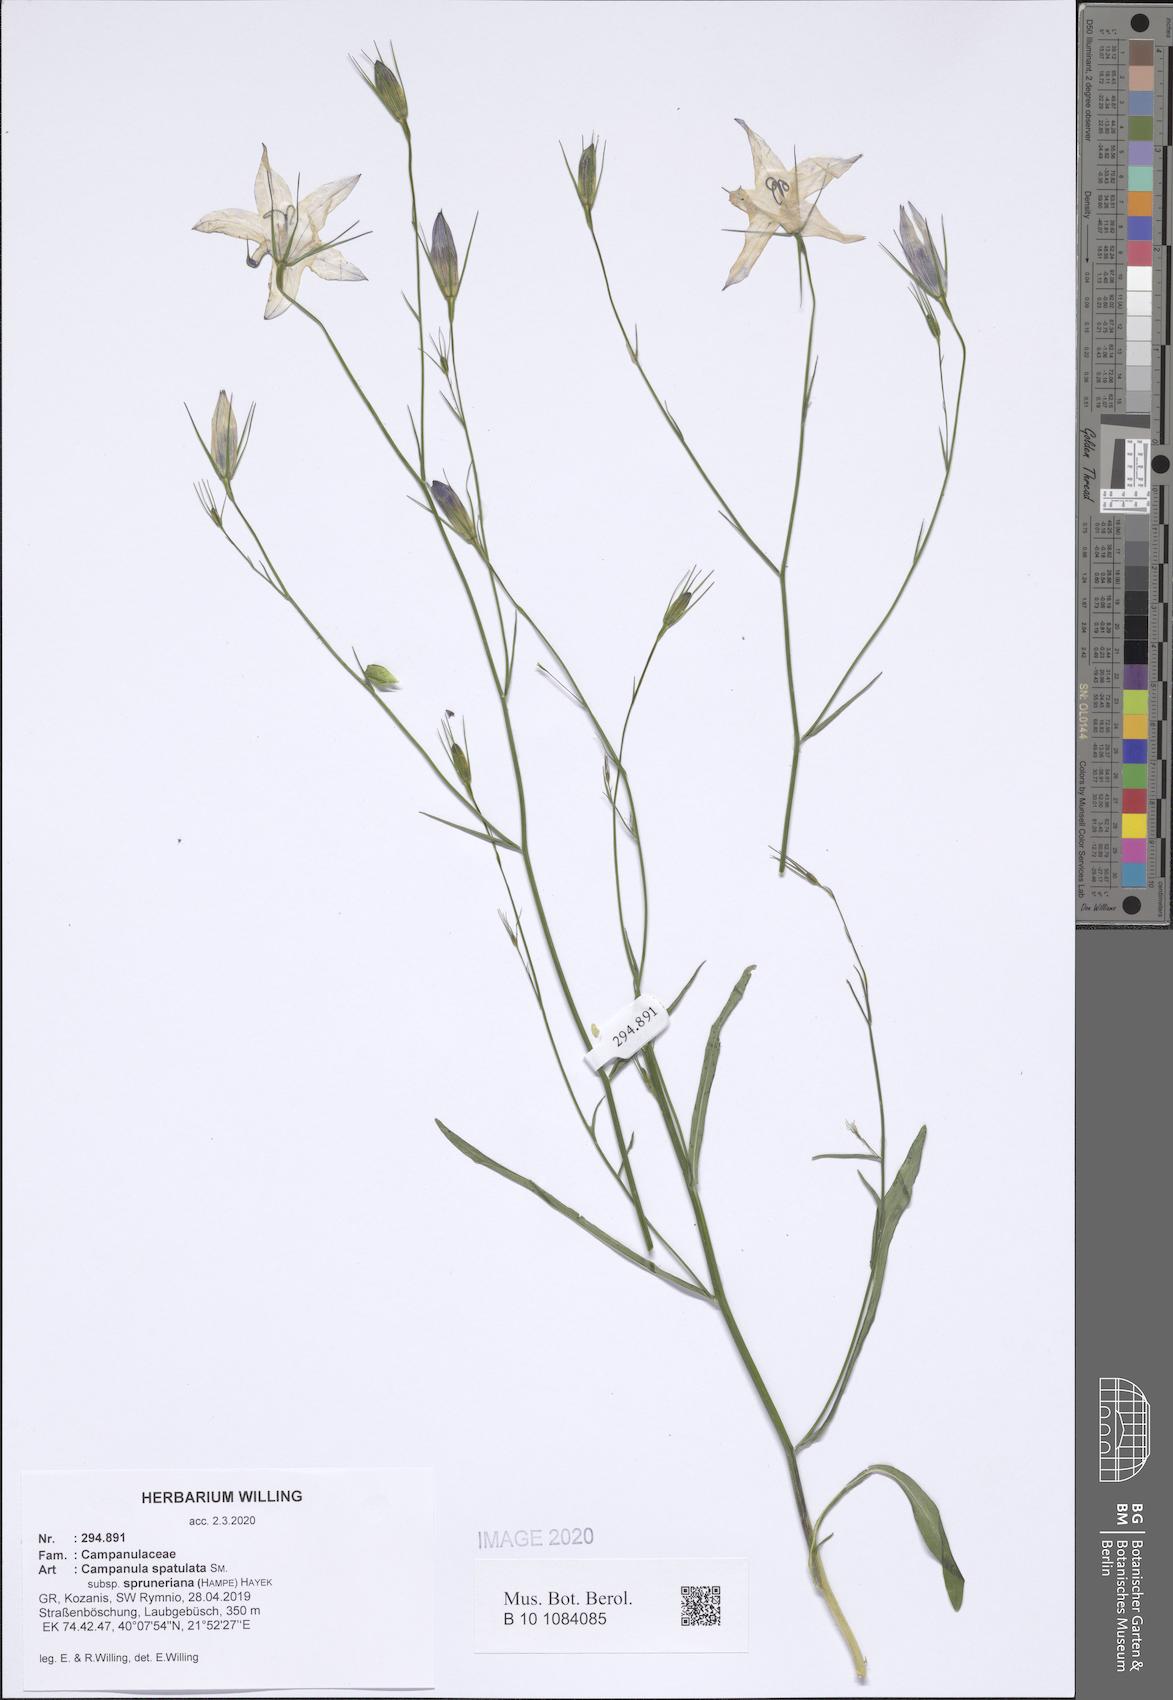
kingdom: Plantae
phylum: Tracheophyta
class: Magnoliopsida
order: Asterales
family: Campanulaceae
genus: Campanula
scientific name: Campanula spatulata
